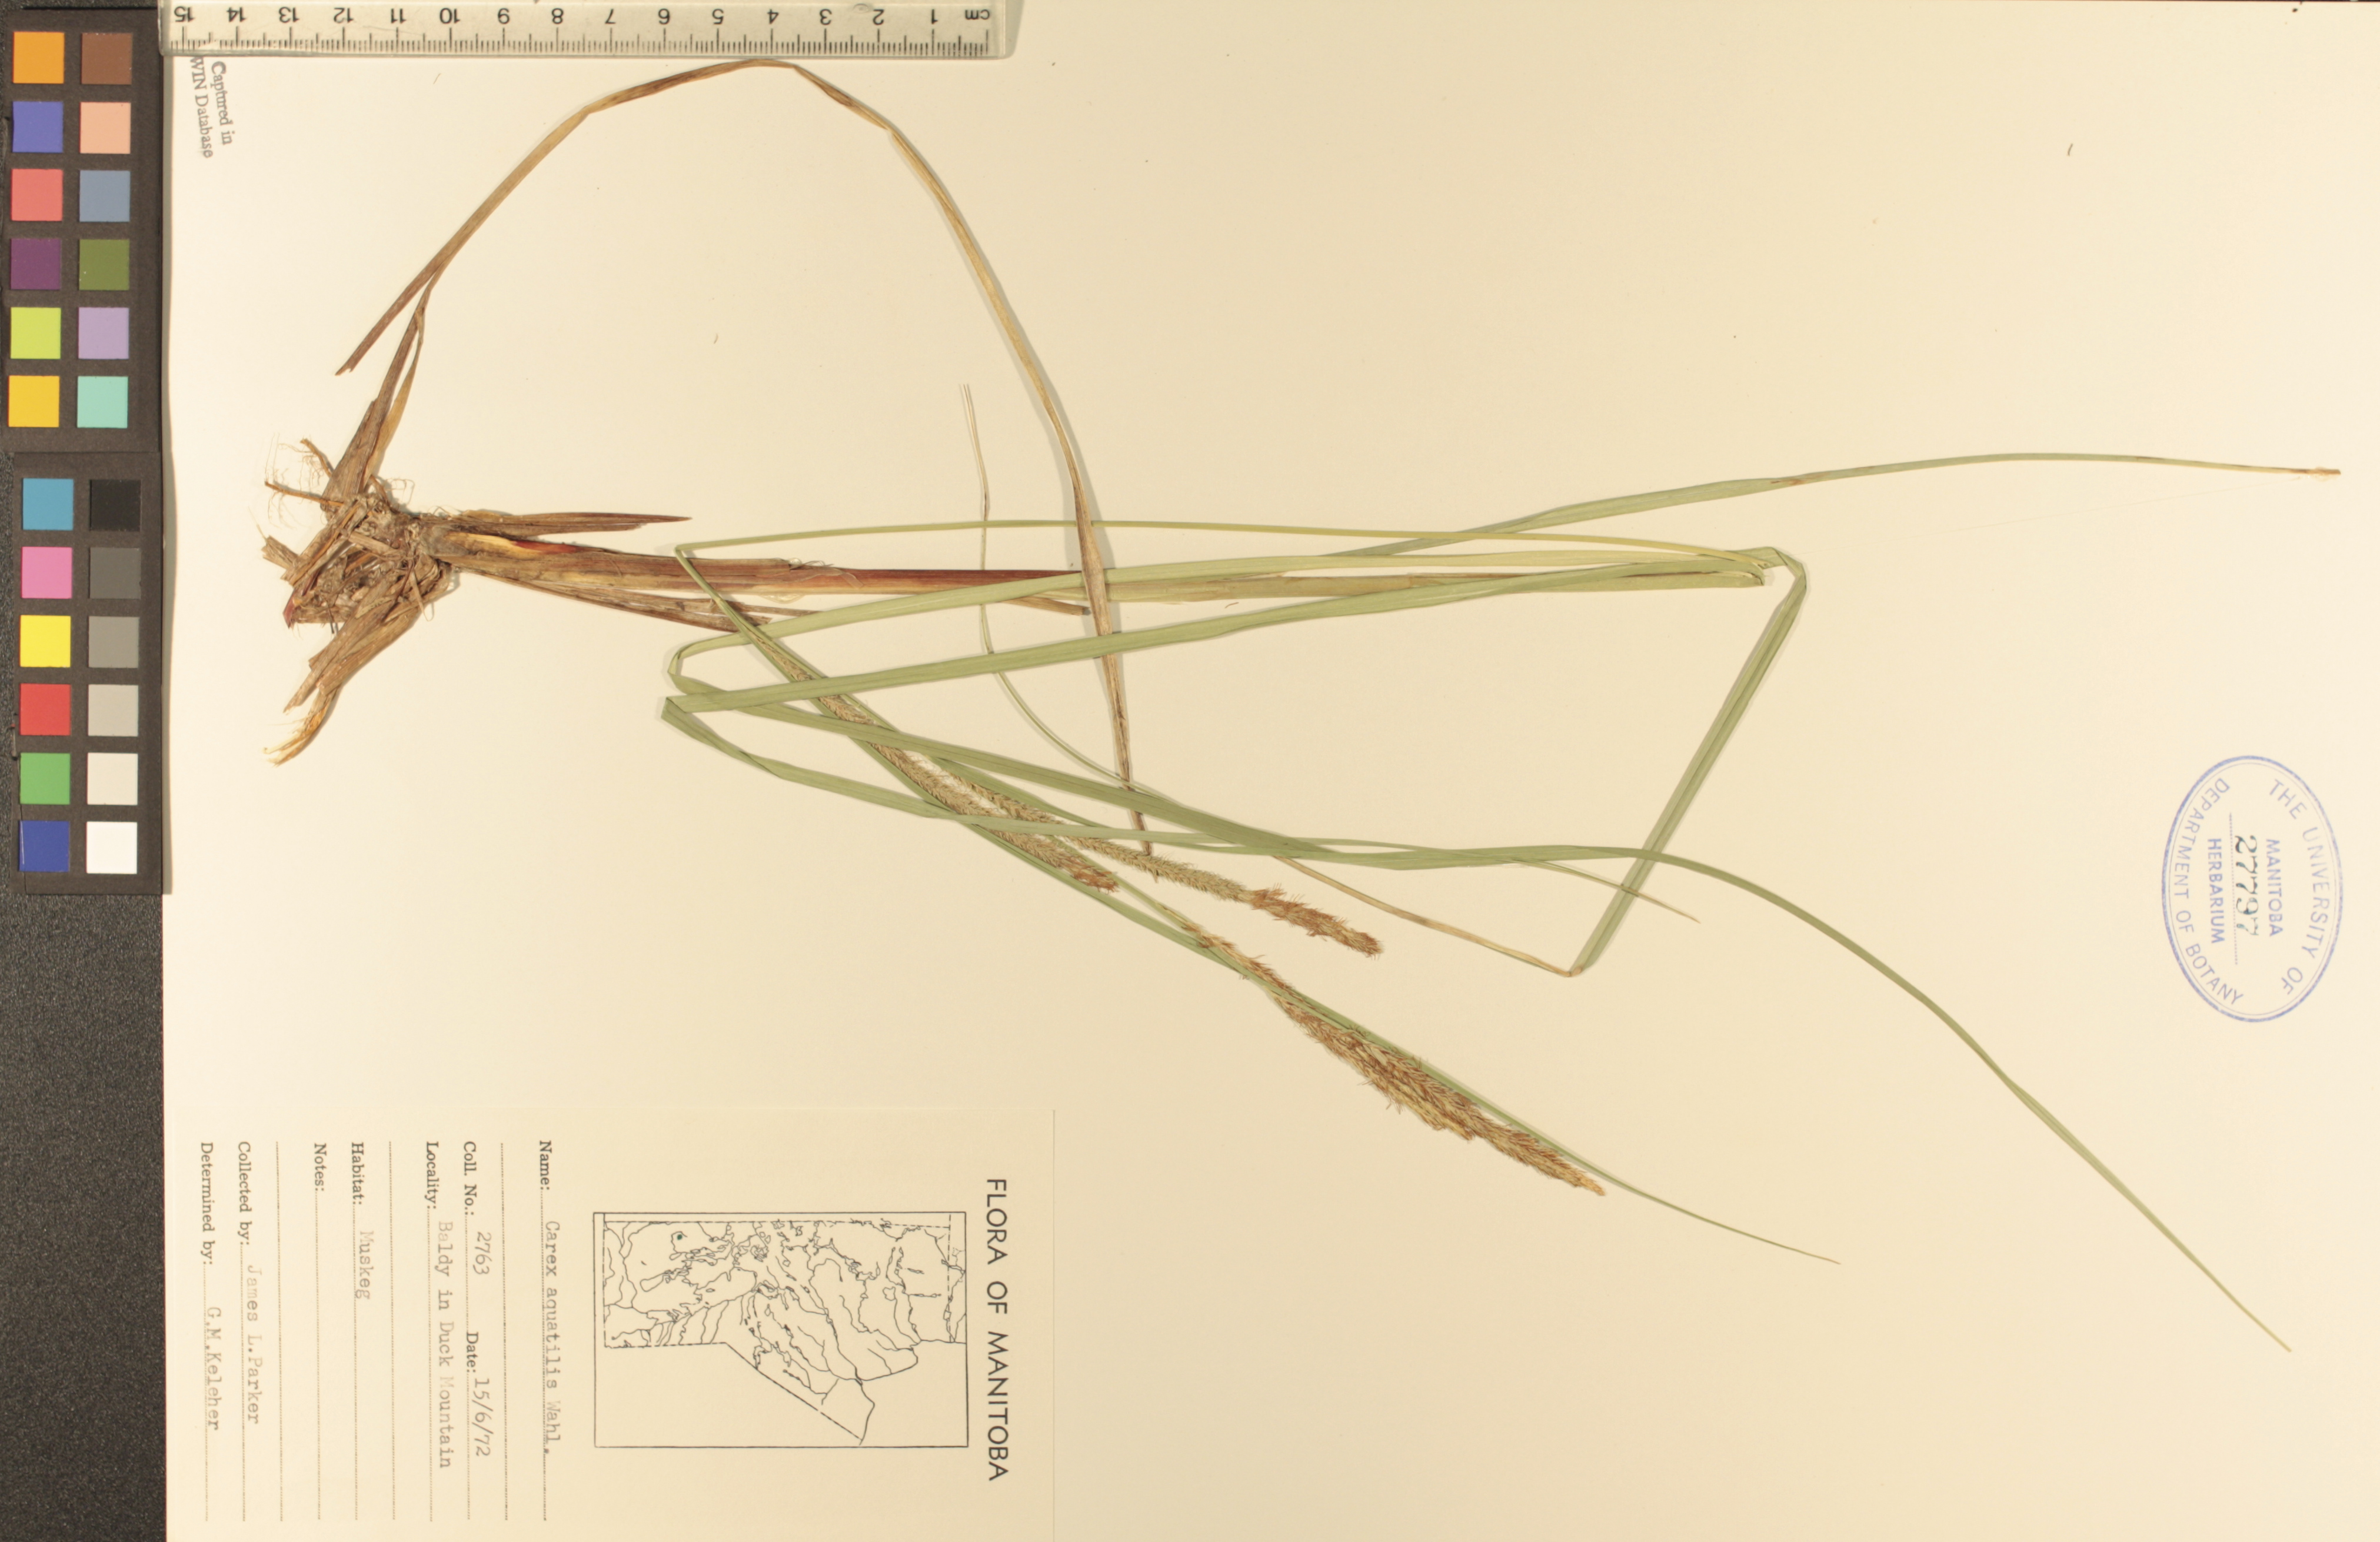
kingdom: Plantae
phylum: Tracheophyta
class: Liliopsida
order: Poales
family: Cyperaceae
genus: Carex
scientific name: Carex aquatilis
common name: Water sedge
